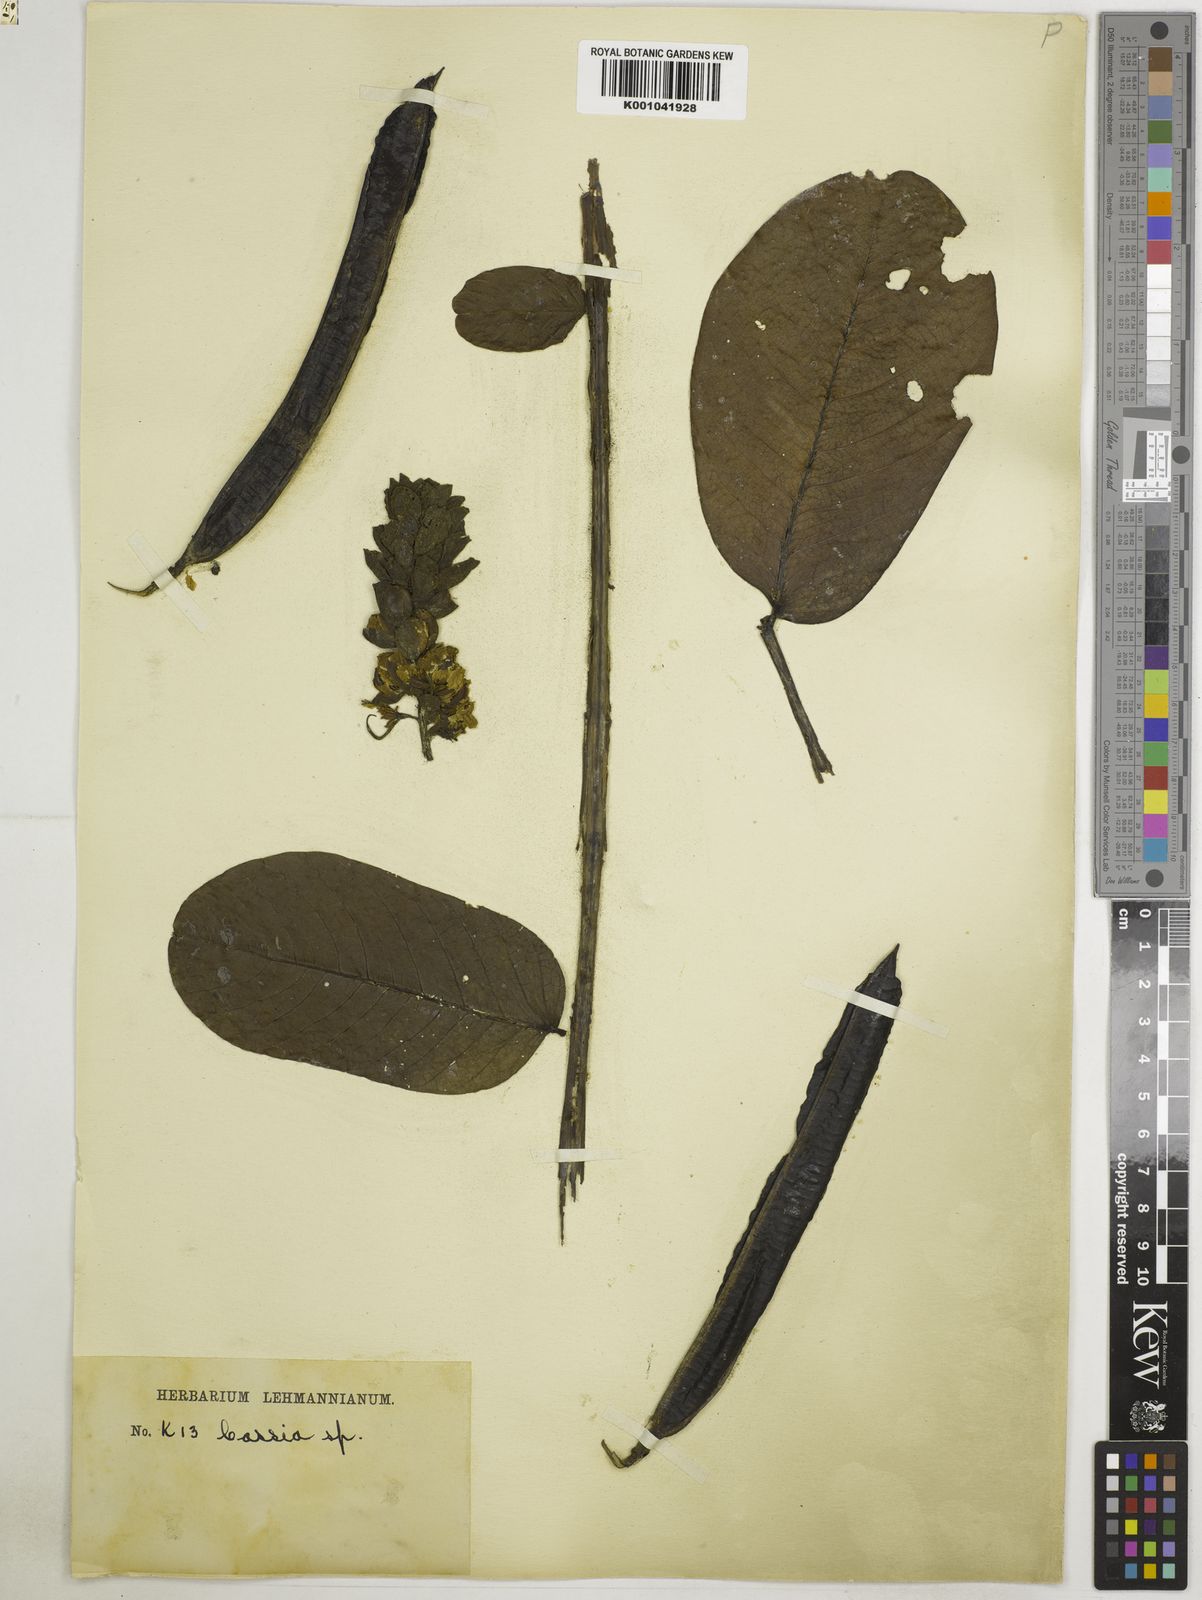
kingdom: Plantae
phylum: Tracheophyta
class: Magnoliopsida
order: Fabales
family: Fabaceae
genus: Senna
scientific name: Senna alata
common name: Emperor's candlesticks
